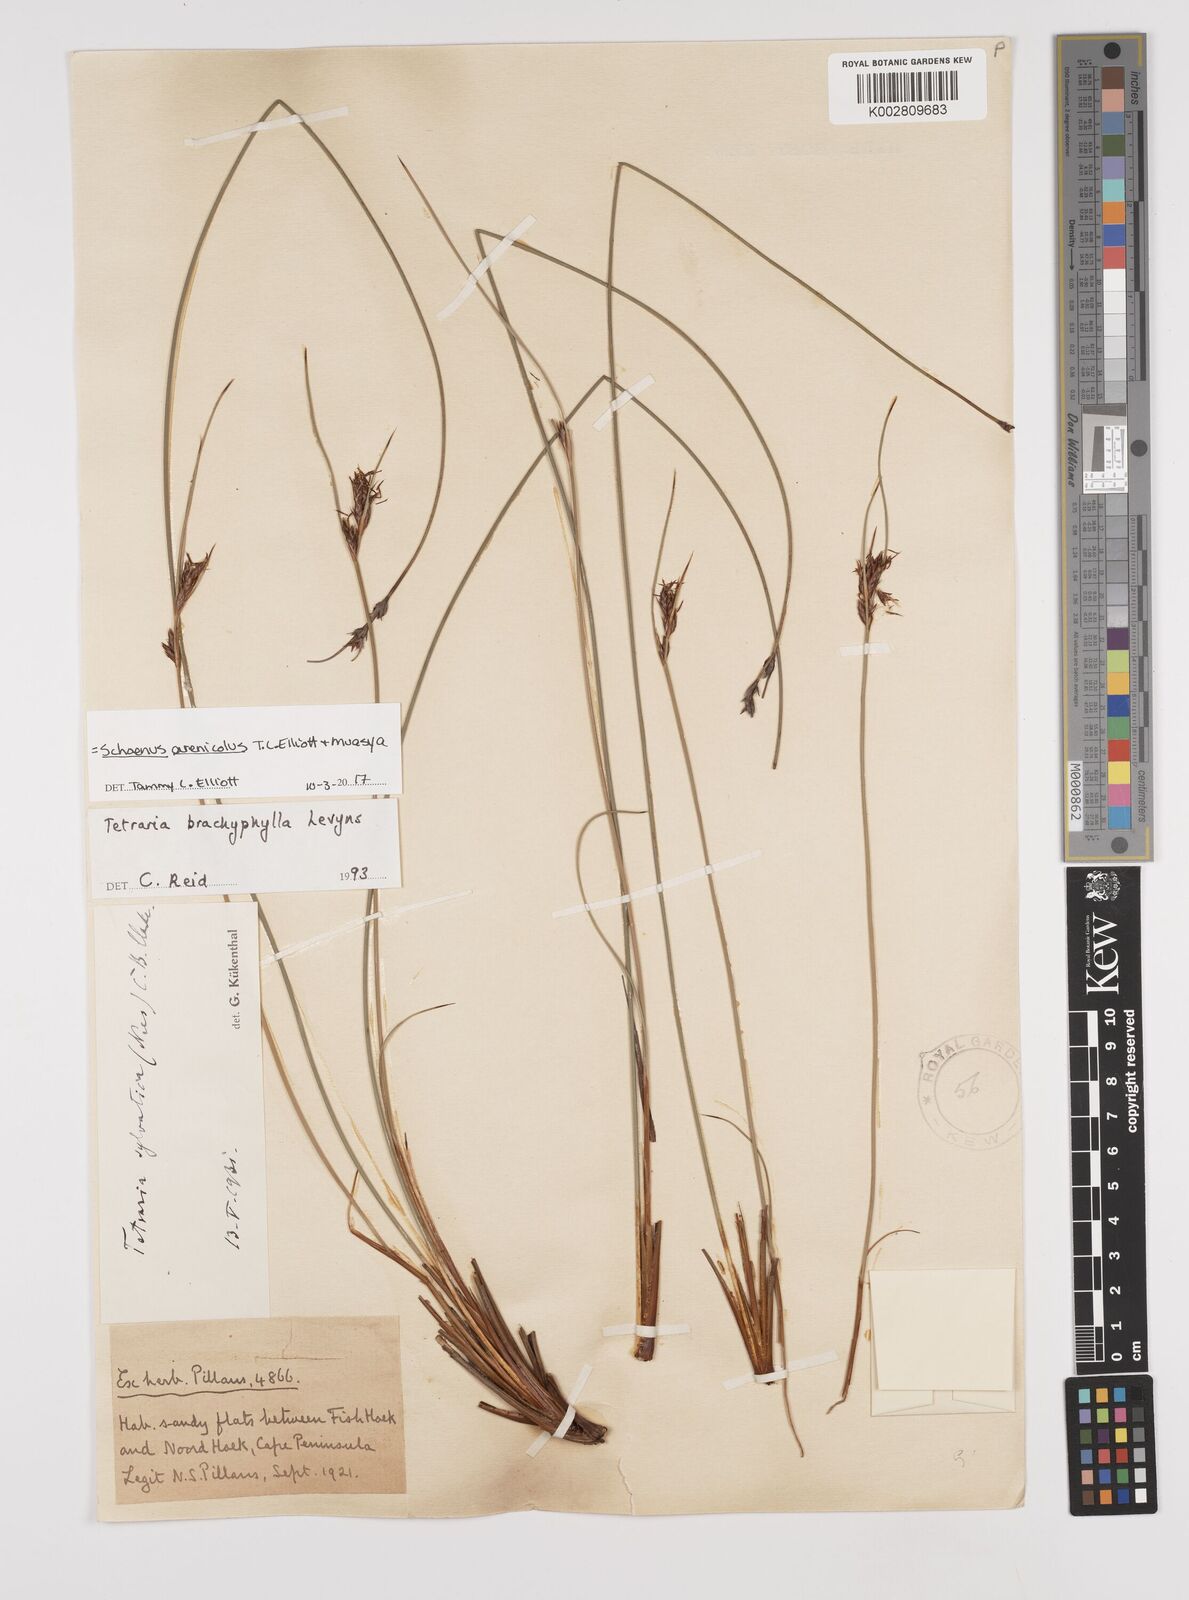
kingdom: Plantae
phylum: Tracheophyta
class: Liliopsida
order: Poales
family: Cyperaceae
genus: Schoenus
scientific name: Schoenus arenicola
